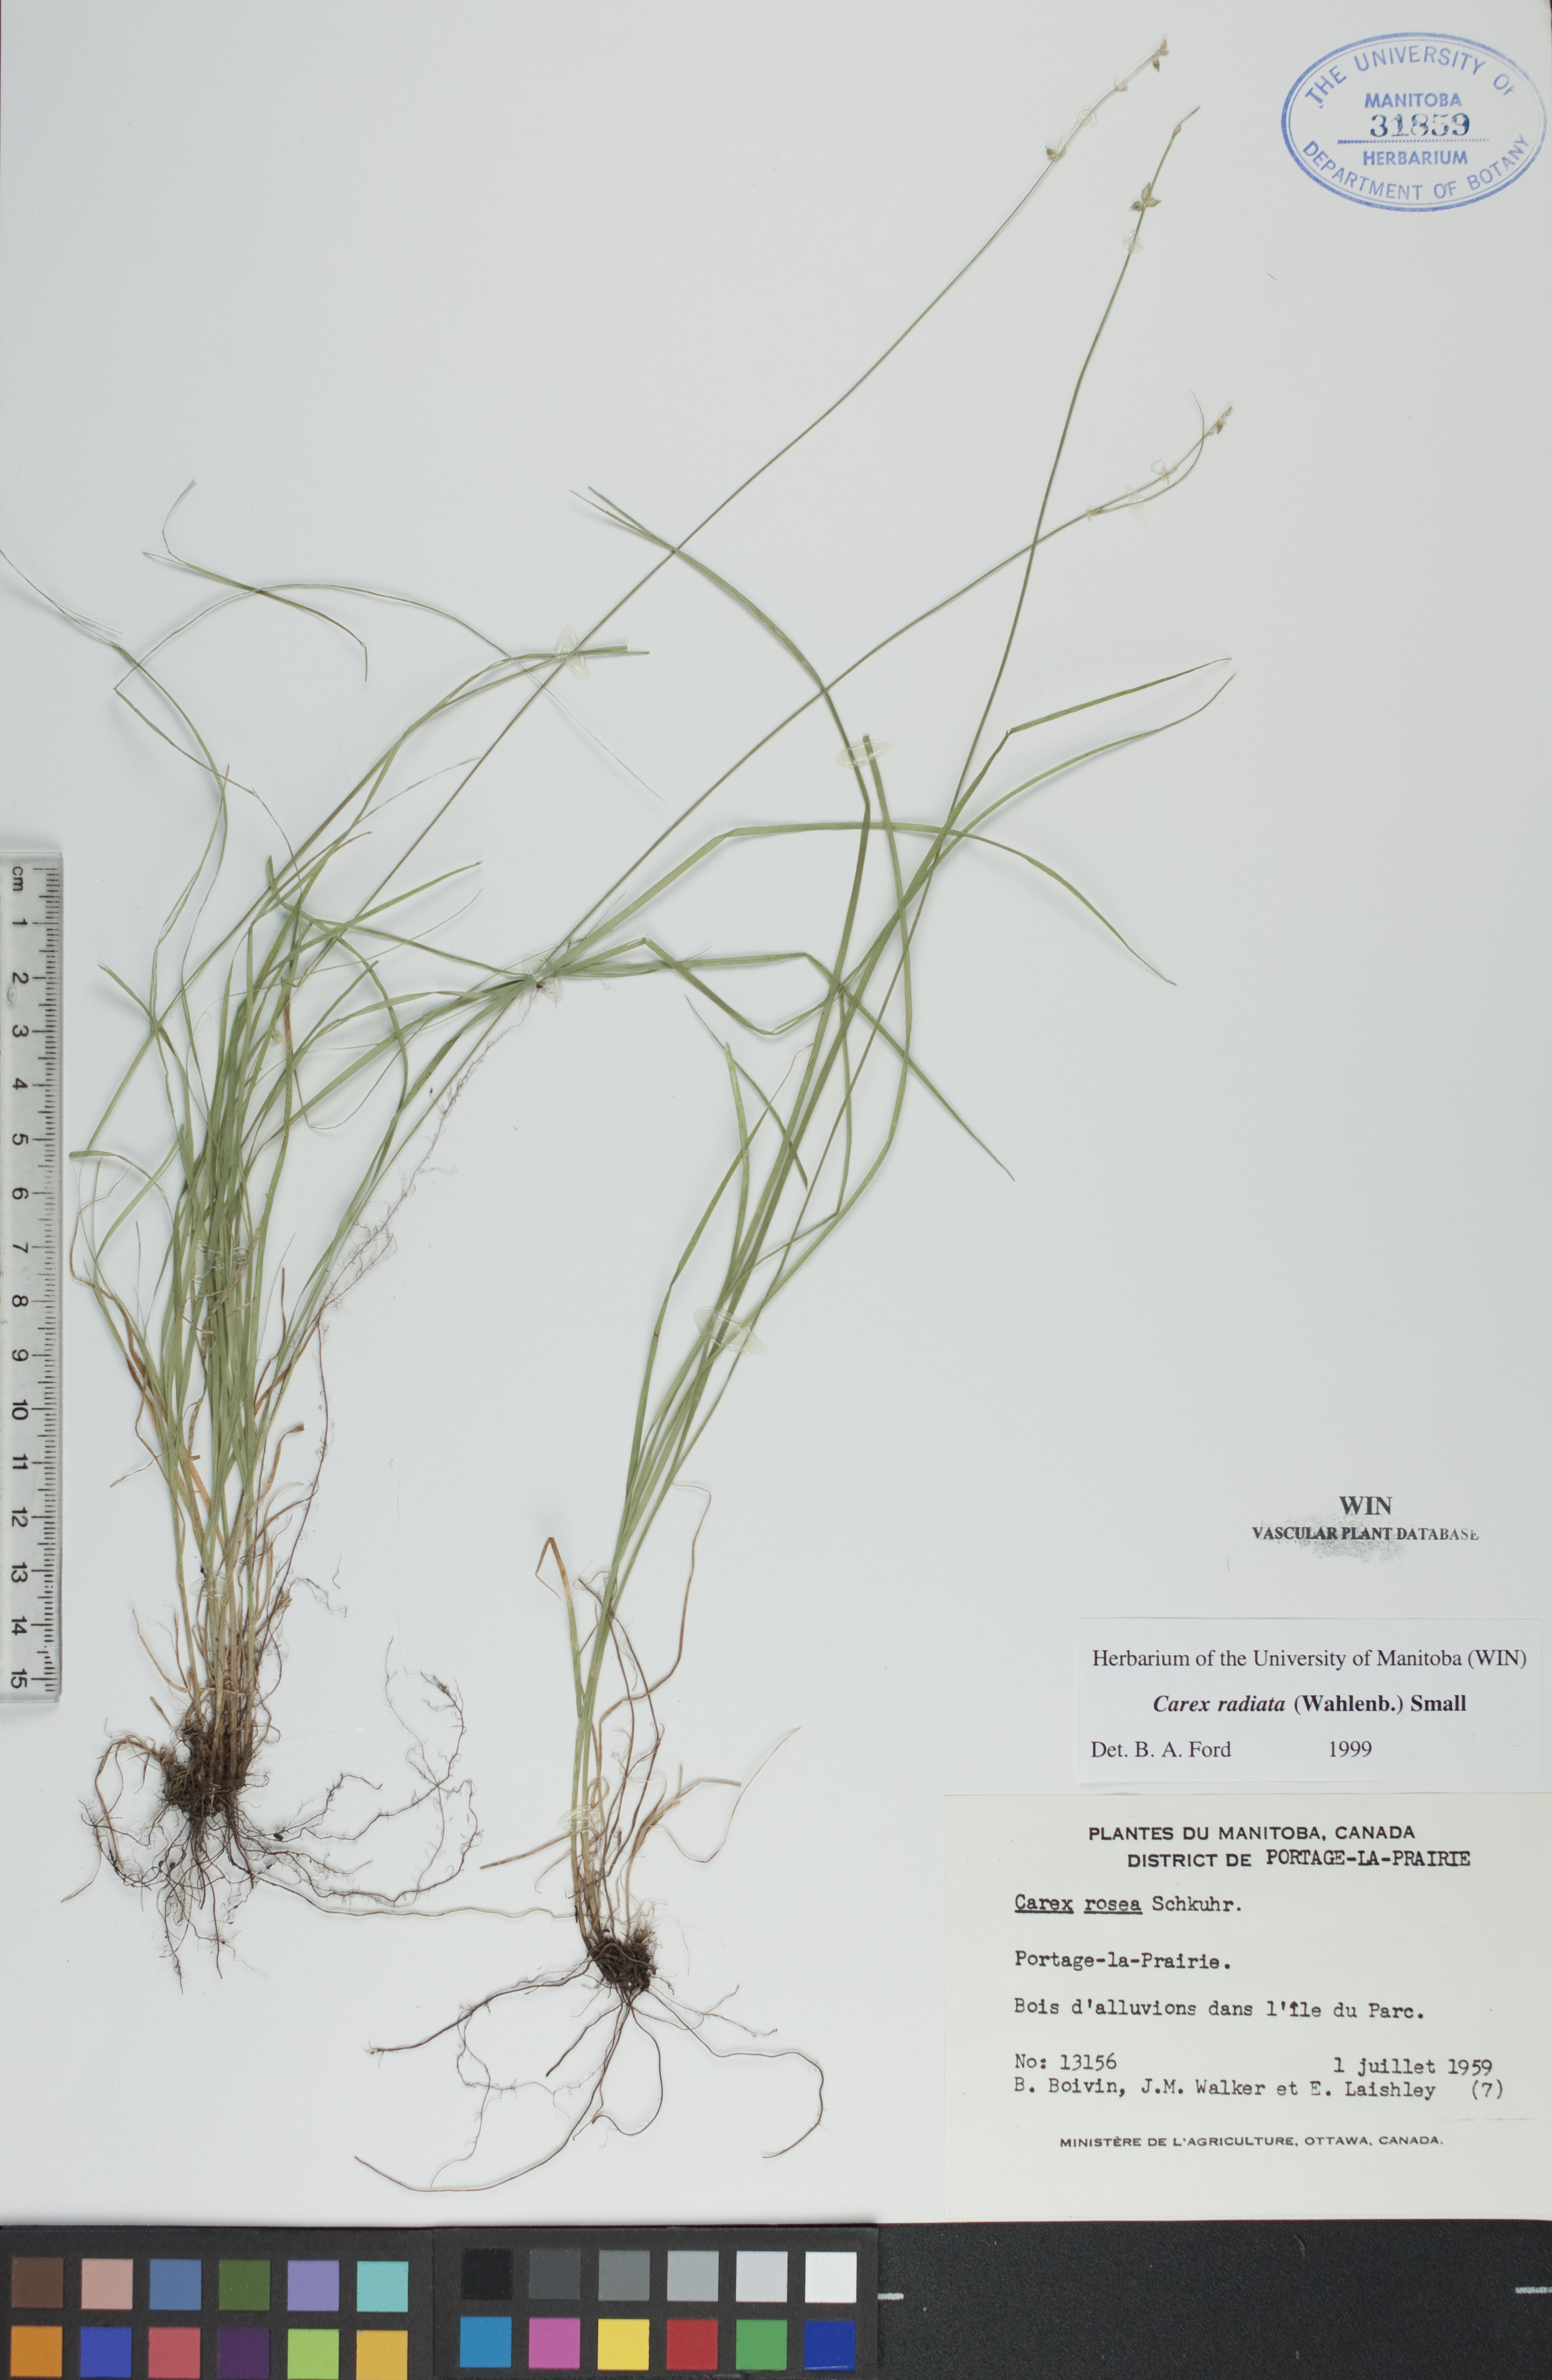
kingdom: Plantae
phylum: Tracheophyta
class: Liliopsida
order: Poales
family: Cyperaceae
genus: Carex
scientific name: Carex radiata
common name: Eastern star sedge
